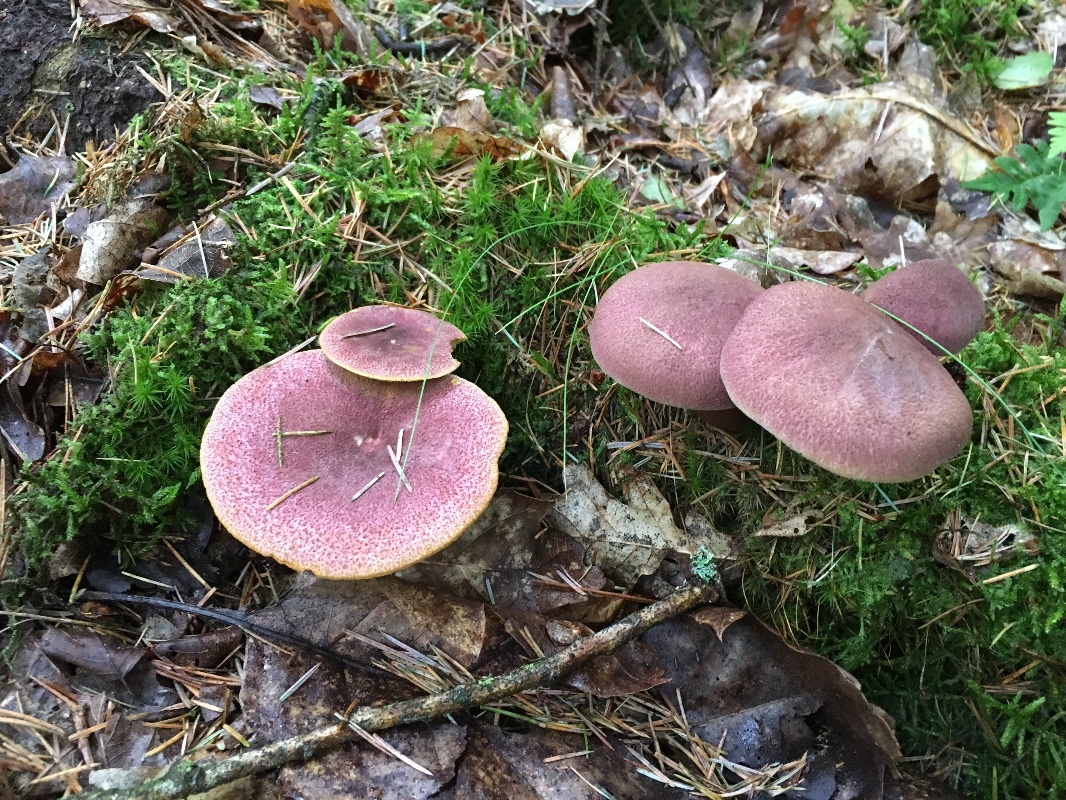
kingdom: Fungi
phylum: Basidiomycota
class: Agaricomycetes
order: Agaricales
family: Tricholomataceae
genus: Tricholomopsis
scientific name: Tricholomopsis rutilans
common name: purpur-væbnerhat
